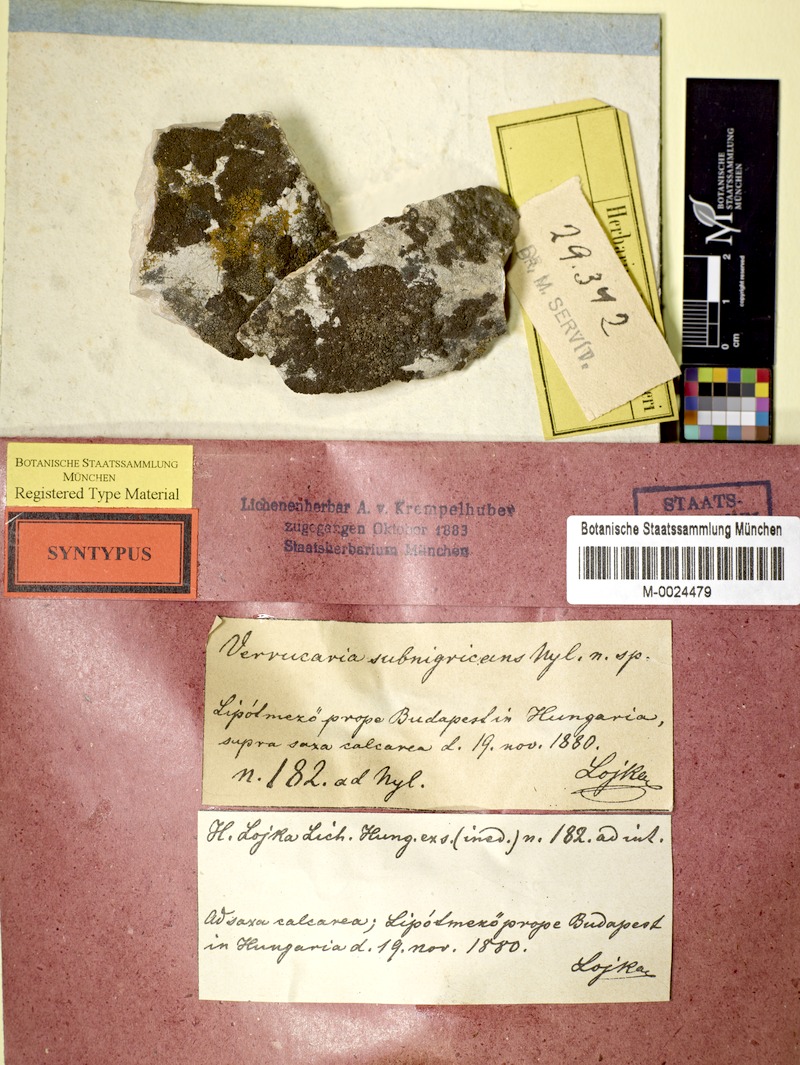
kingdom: Fungi
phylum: Ascomycota
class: Eurotiomycetes
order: Verrucariales
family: Verrucariaceae
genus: Verrucaria
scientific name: Verrucaria obfuscans
